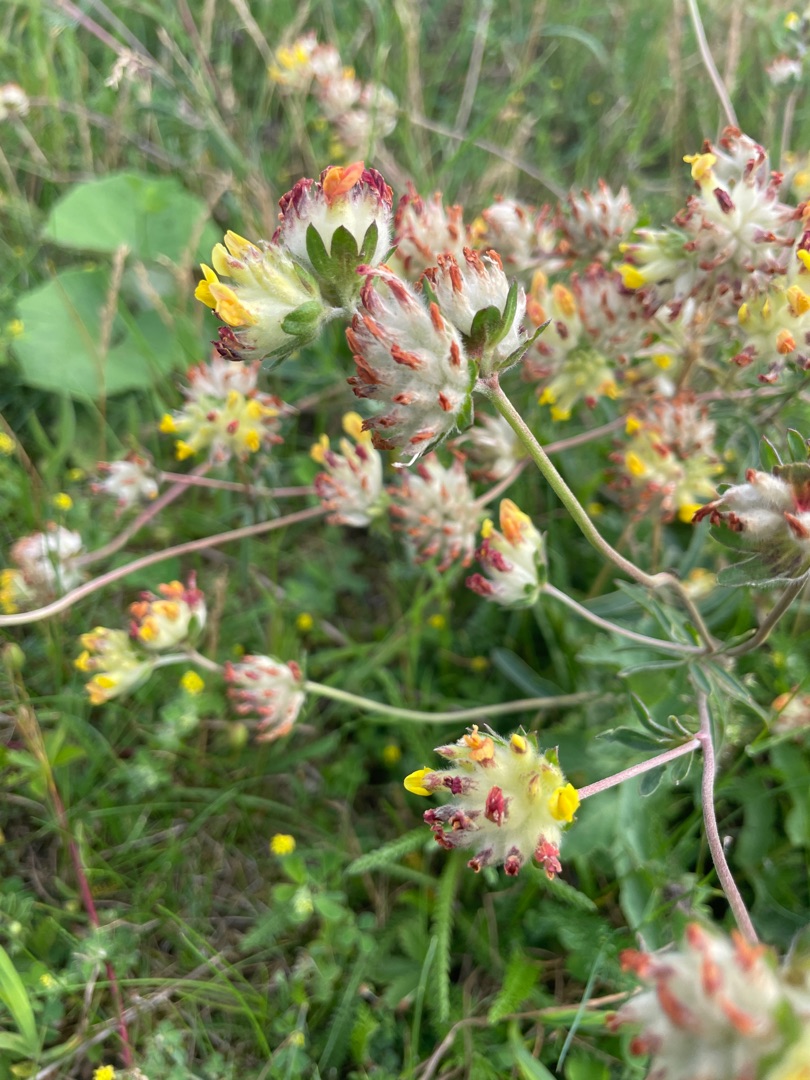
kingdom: Plantae
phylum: Tracheophyta
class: Magnoliopsida
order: Fabales
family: Fabaceae
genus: Anthyllis
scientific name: Anthyllis vulneraria
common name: Rundbælg
